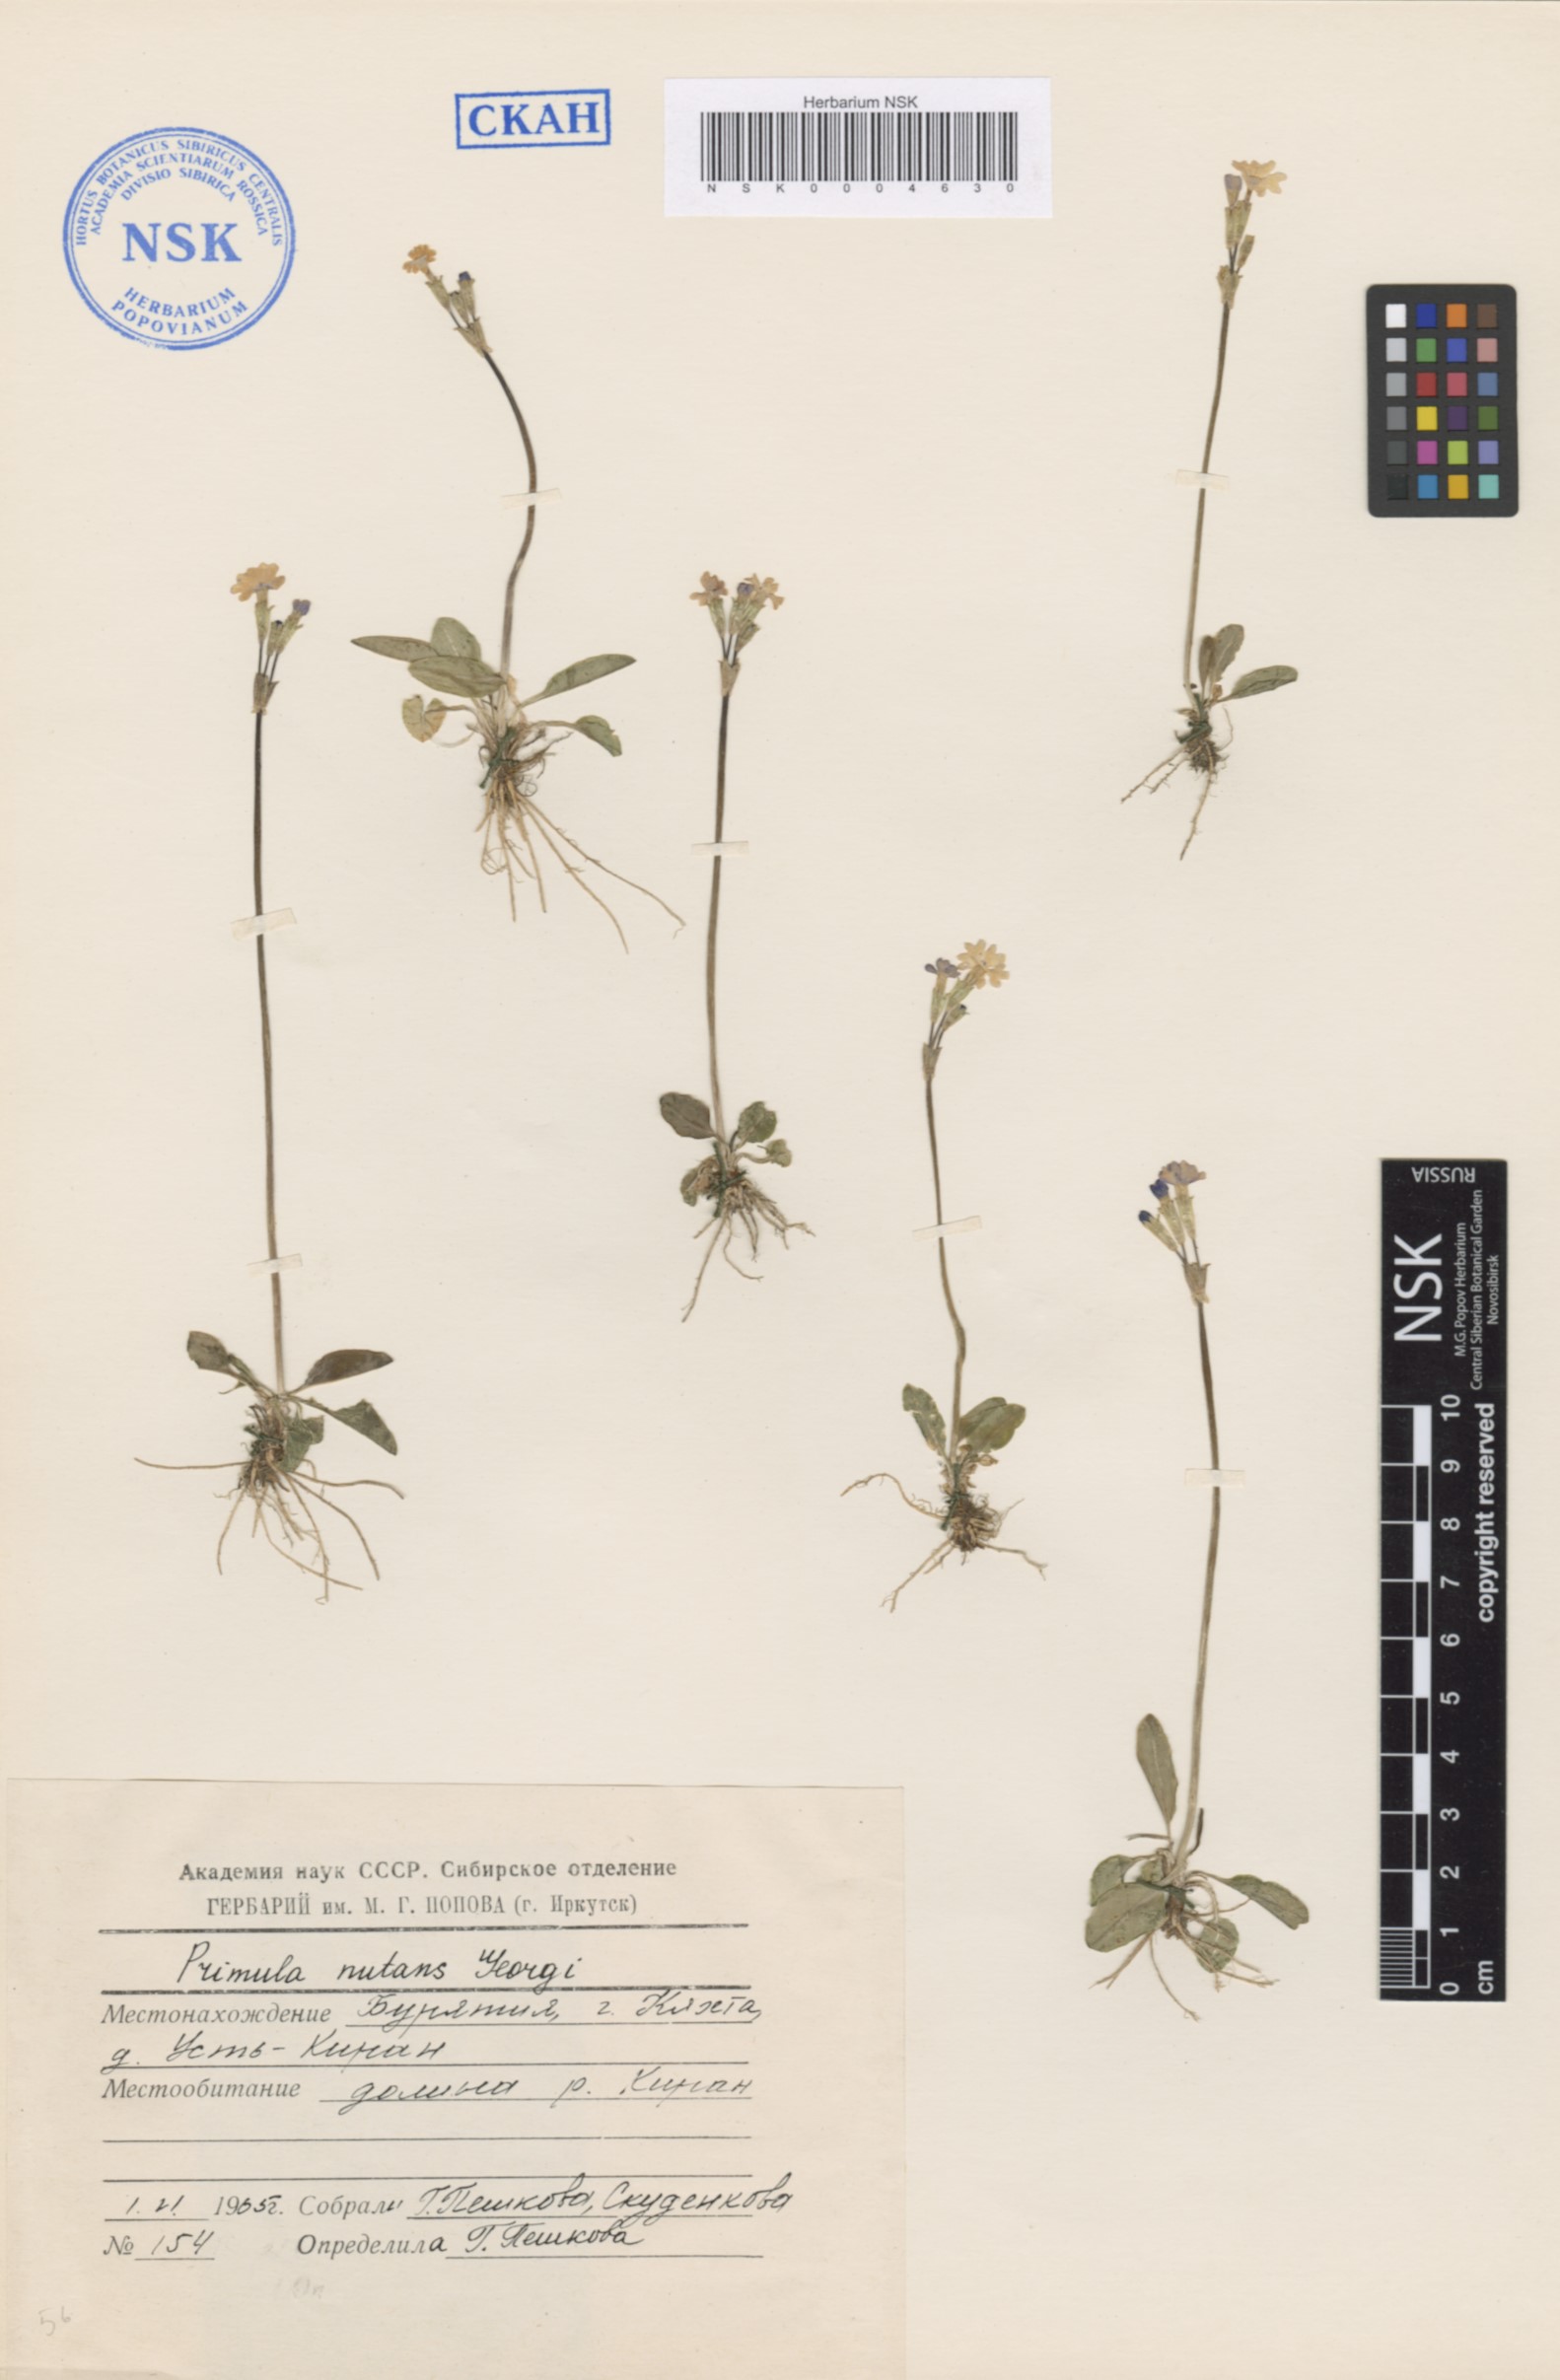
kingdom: Plantae
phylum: Tracheophyta
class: Magnoliopsida
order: Ericales
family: Primulaceae
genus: Primula
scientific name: Primula nutans
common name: Siberian primrose
